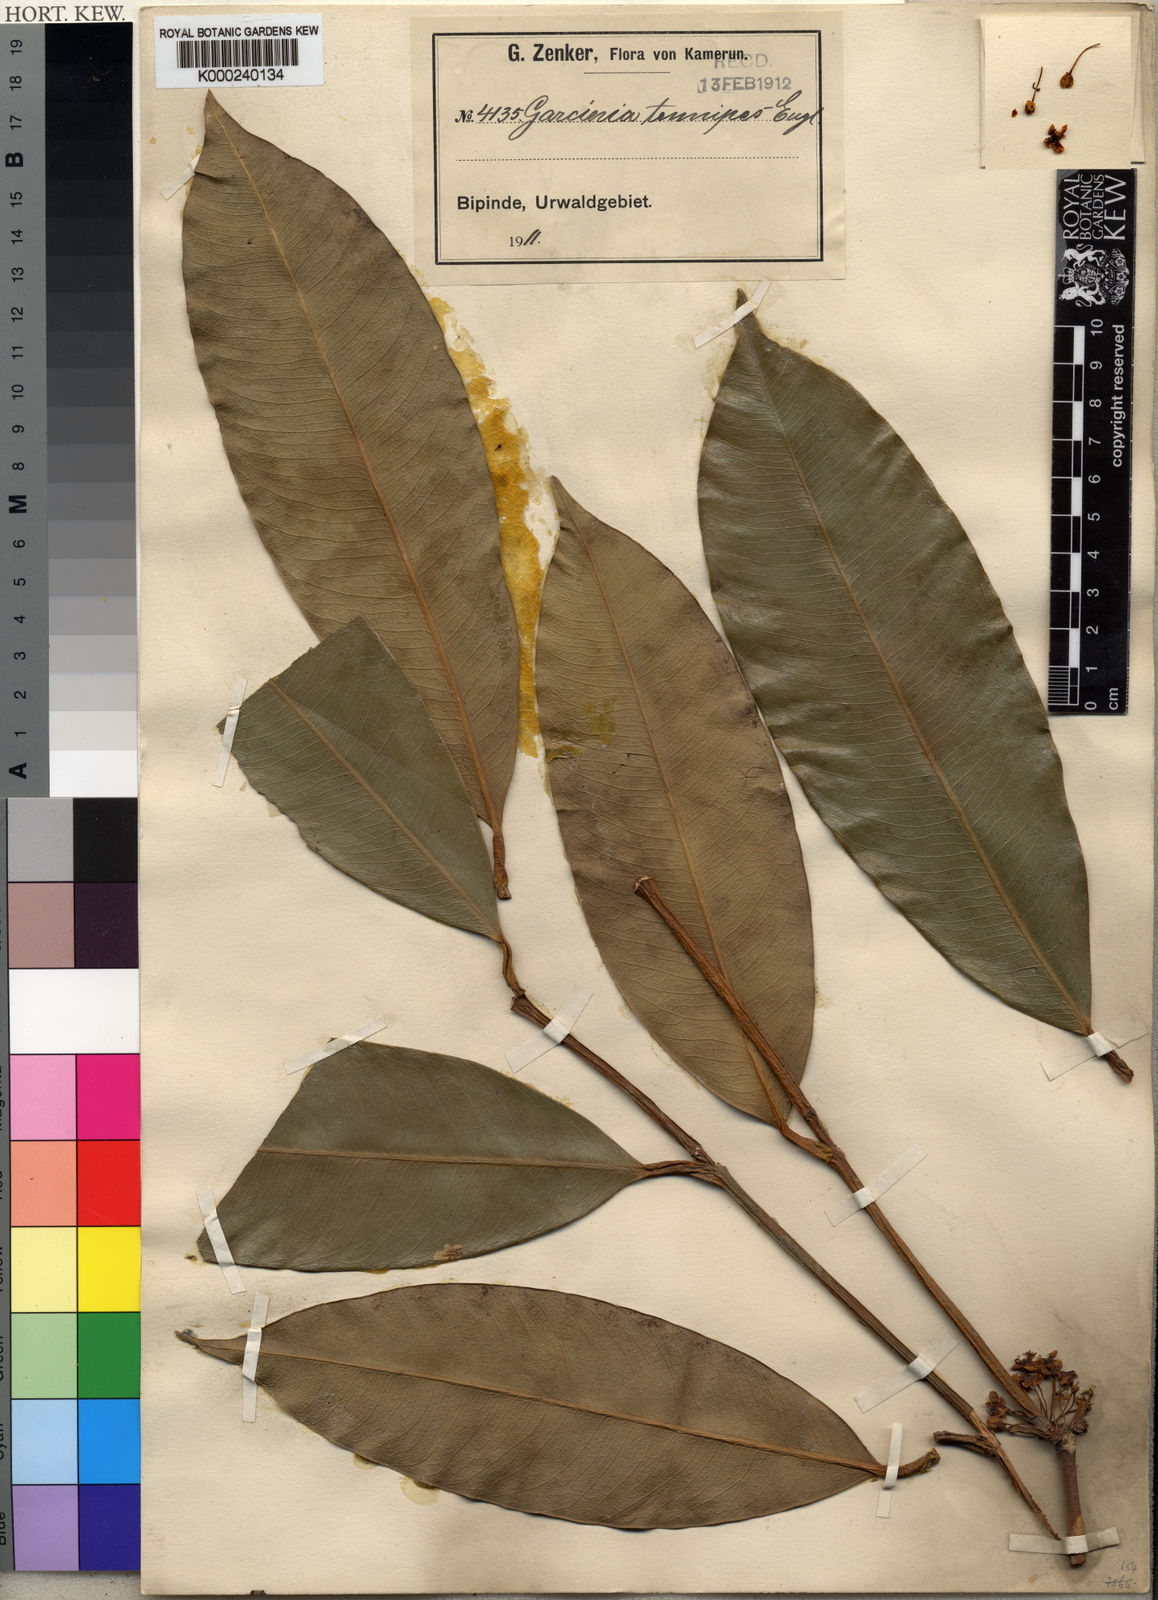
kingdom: Plantae
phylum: Tracheophyta
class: Magnoliopsida
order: Malpighiales
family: Clusiaceae
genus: Garcinia
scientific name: Garcinia smeathmannii
